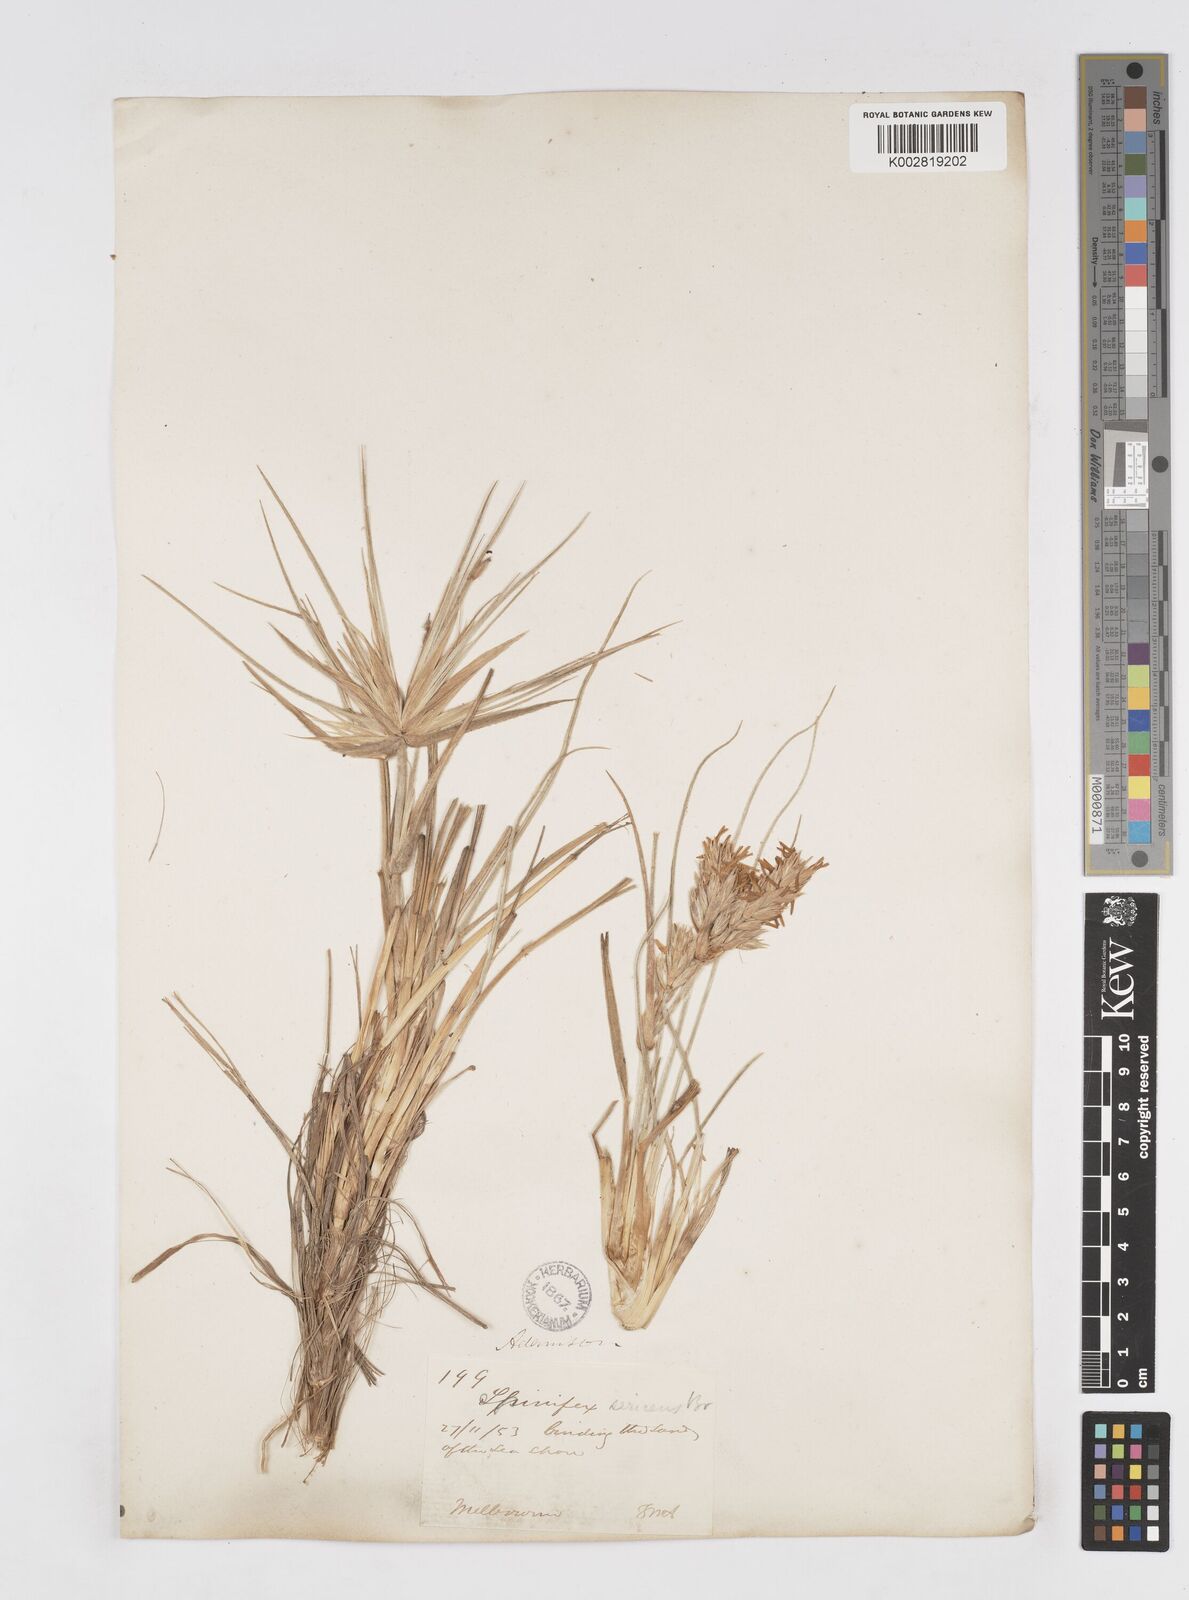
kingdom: Plantae
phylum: Tracheophyta
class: Liliopsida
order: Poales
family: Poaceae
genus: Spinifex
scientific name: Spinifex sericeus
